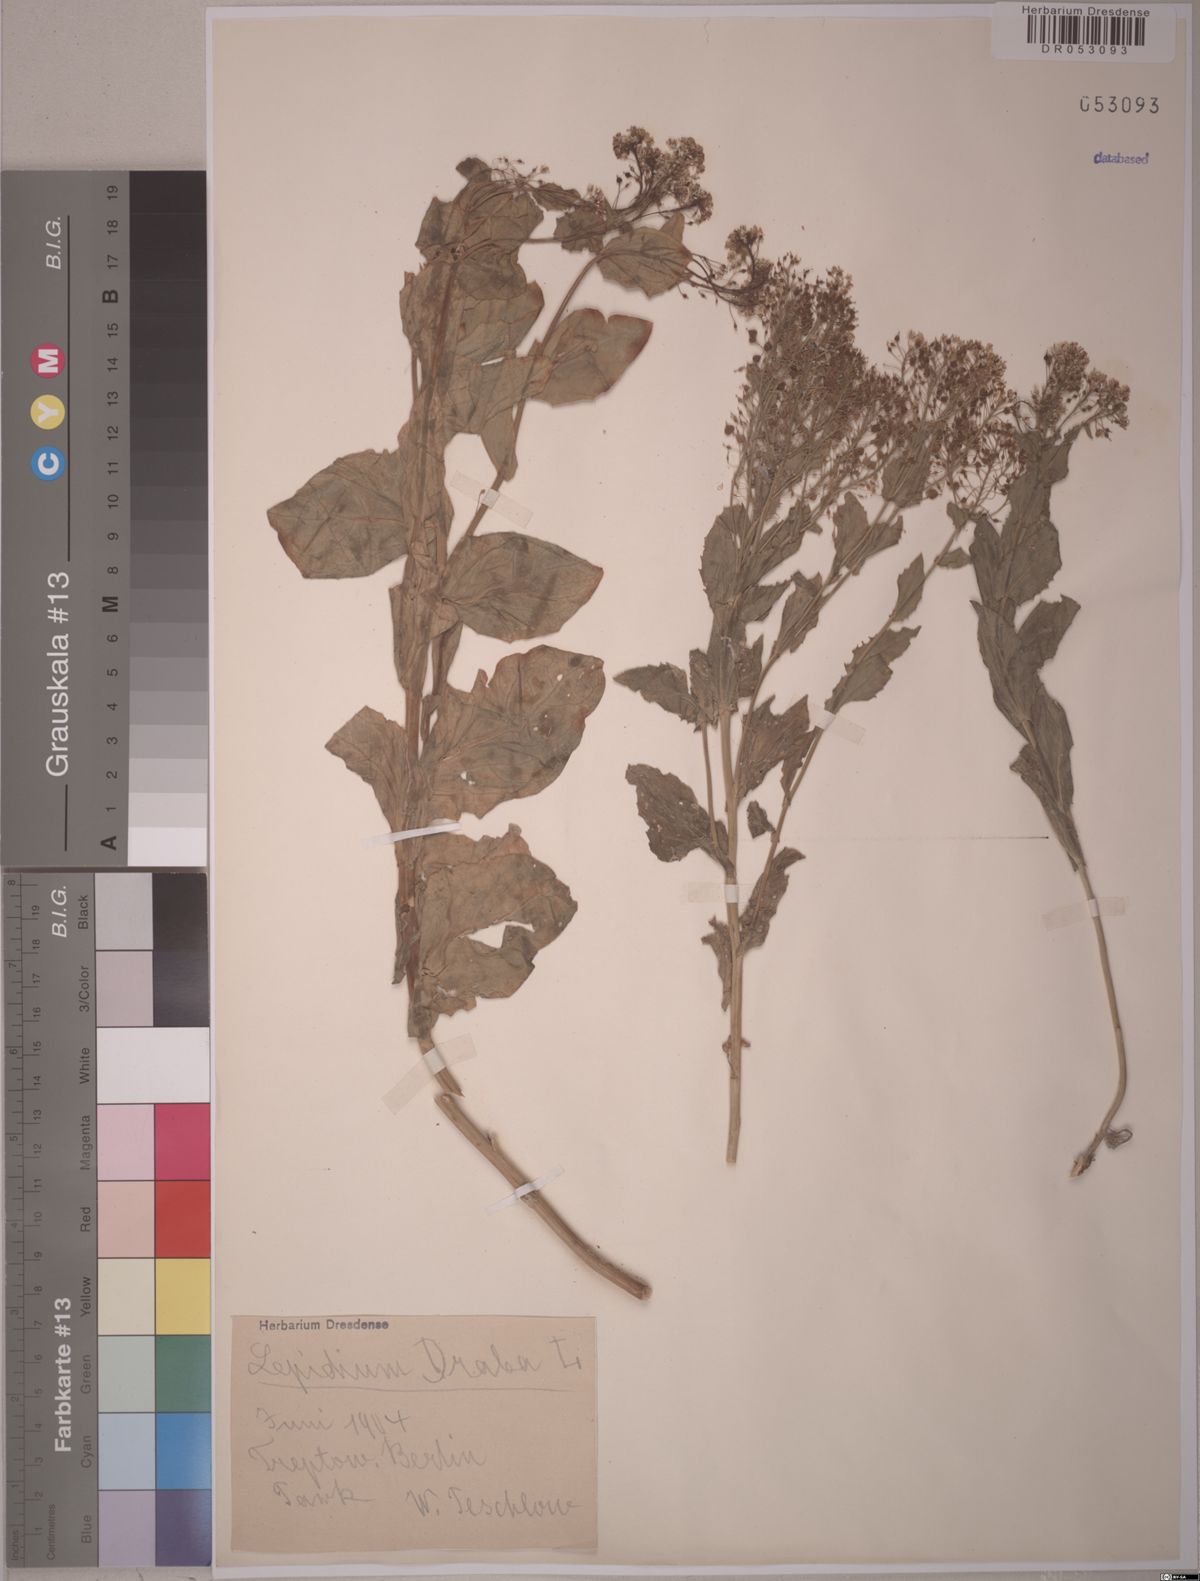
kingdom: Plantae
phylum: Tracheophyta
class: Magnoliopsida
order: Brassicales
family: Brassicaceae
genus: Lepidium
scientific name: Lepidium draba
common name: Hoary cress
